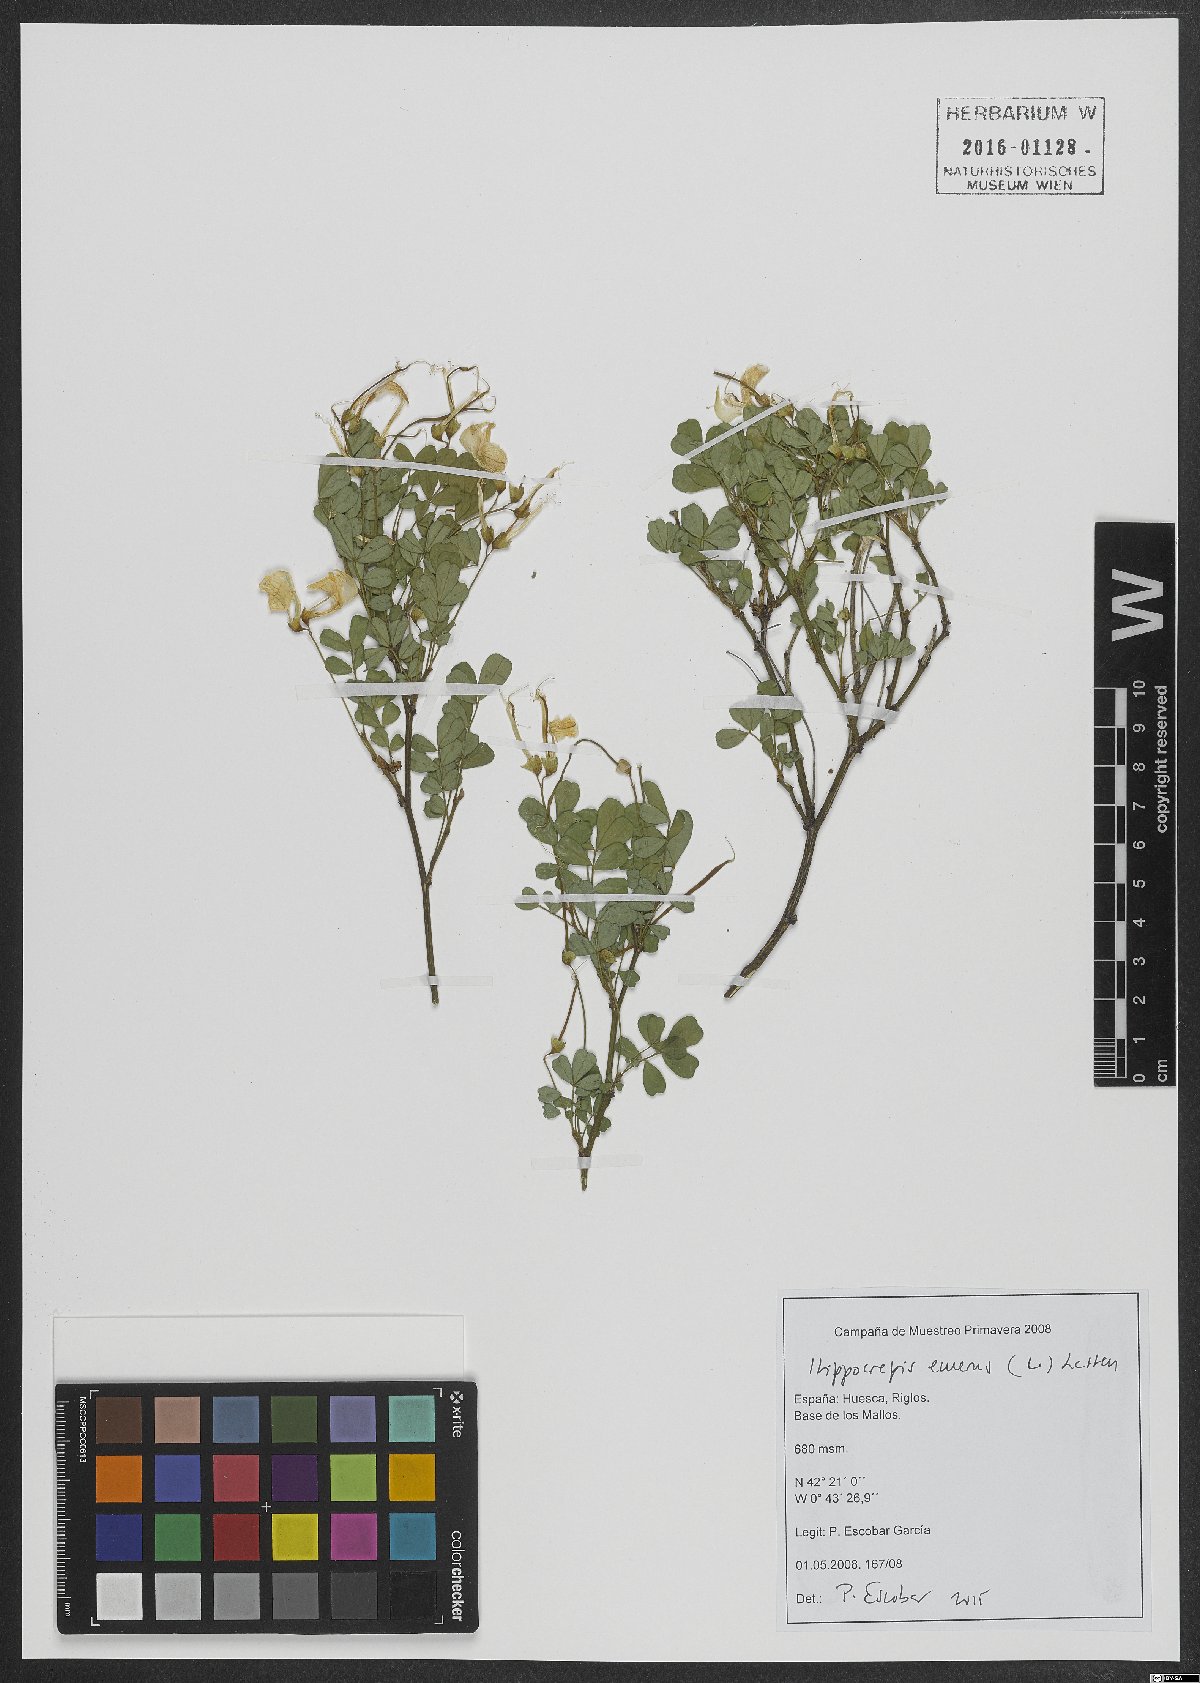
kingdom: Plantae
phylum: Tracheophyta
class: Magnoliopsida
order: Fabales
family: Fabaceae
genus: Hippocrepis
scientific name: Hippocrepis emerus
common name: Scorpion senna
